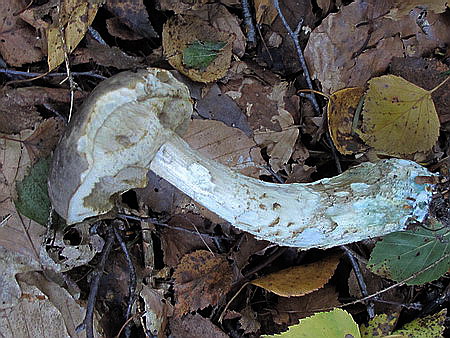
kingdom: Fungi
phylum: Basidiomycota
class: Agaricomycetes
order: Boletales
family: Boletaceae
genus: Leccinum
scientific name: Leccinum variicolor
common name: flammet skælrørhat
